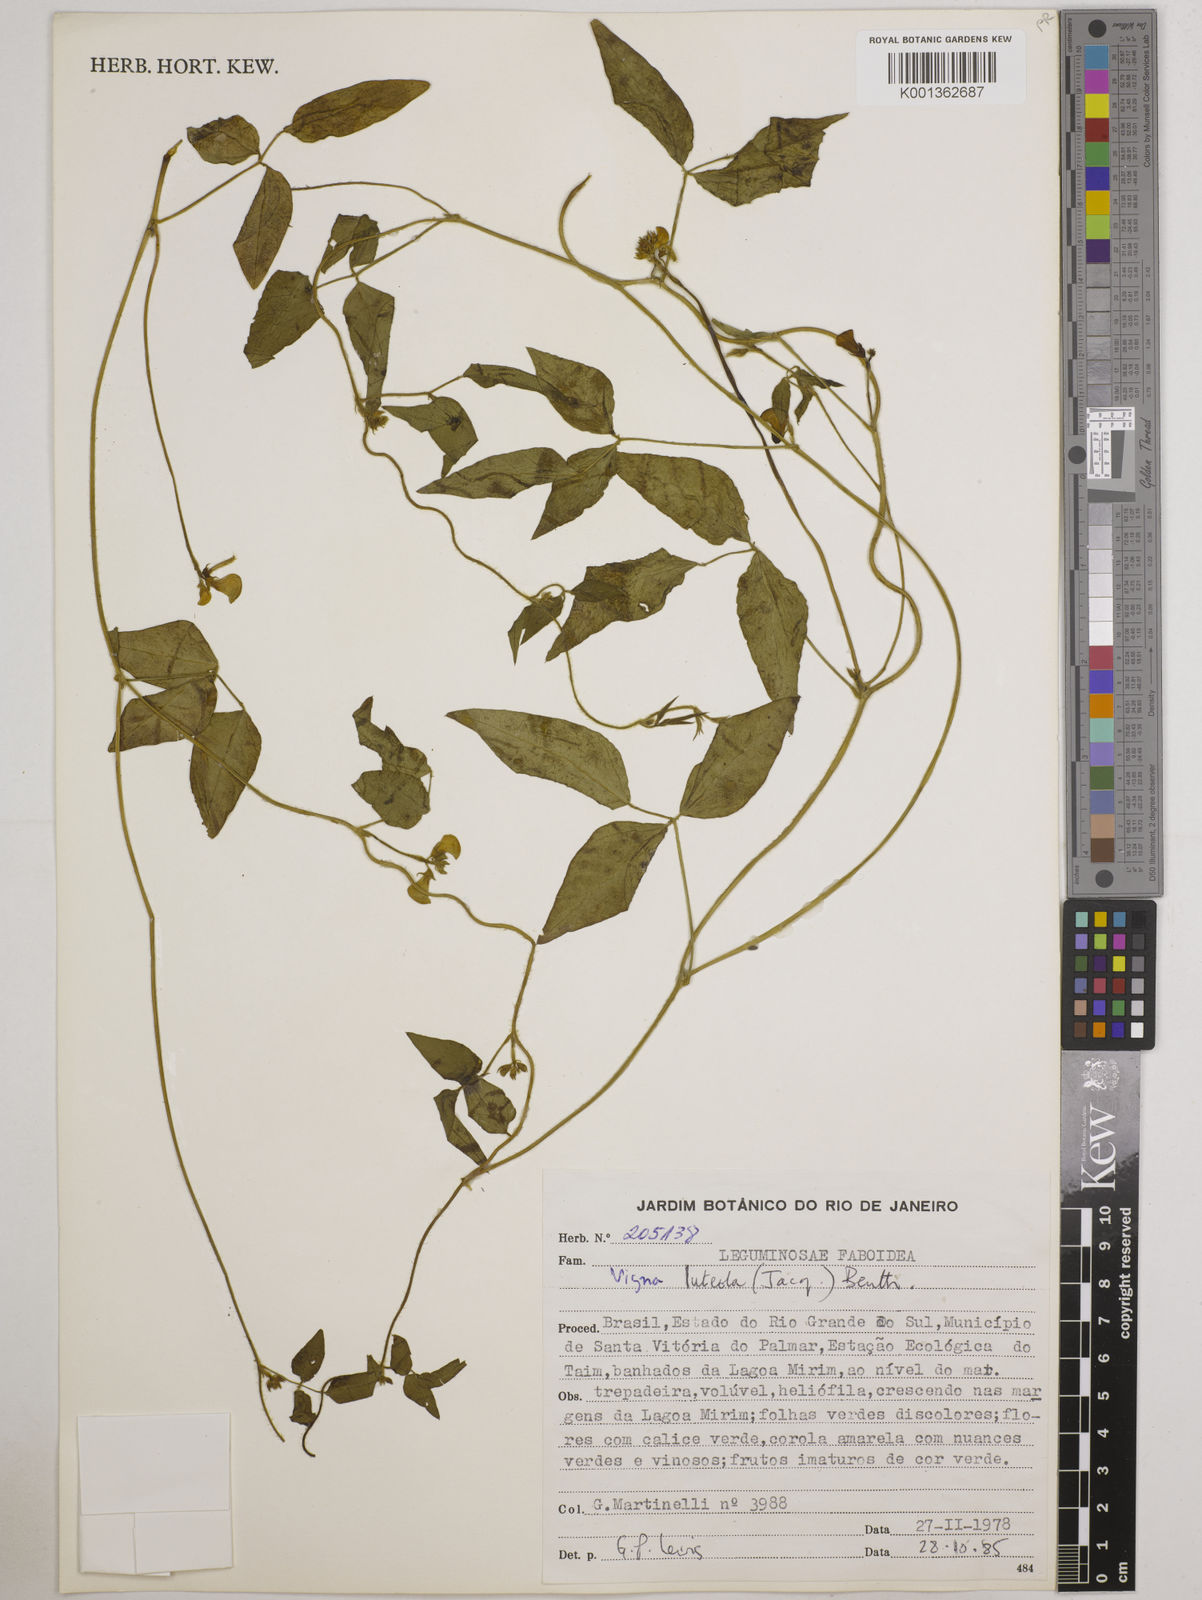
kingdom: Plantae
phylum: Tracheophyta
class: Magnoliopsida
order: Fabales
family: Fabaceae
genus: Vigna
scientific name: Vigna luteola
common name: Hairypod cowpea
